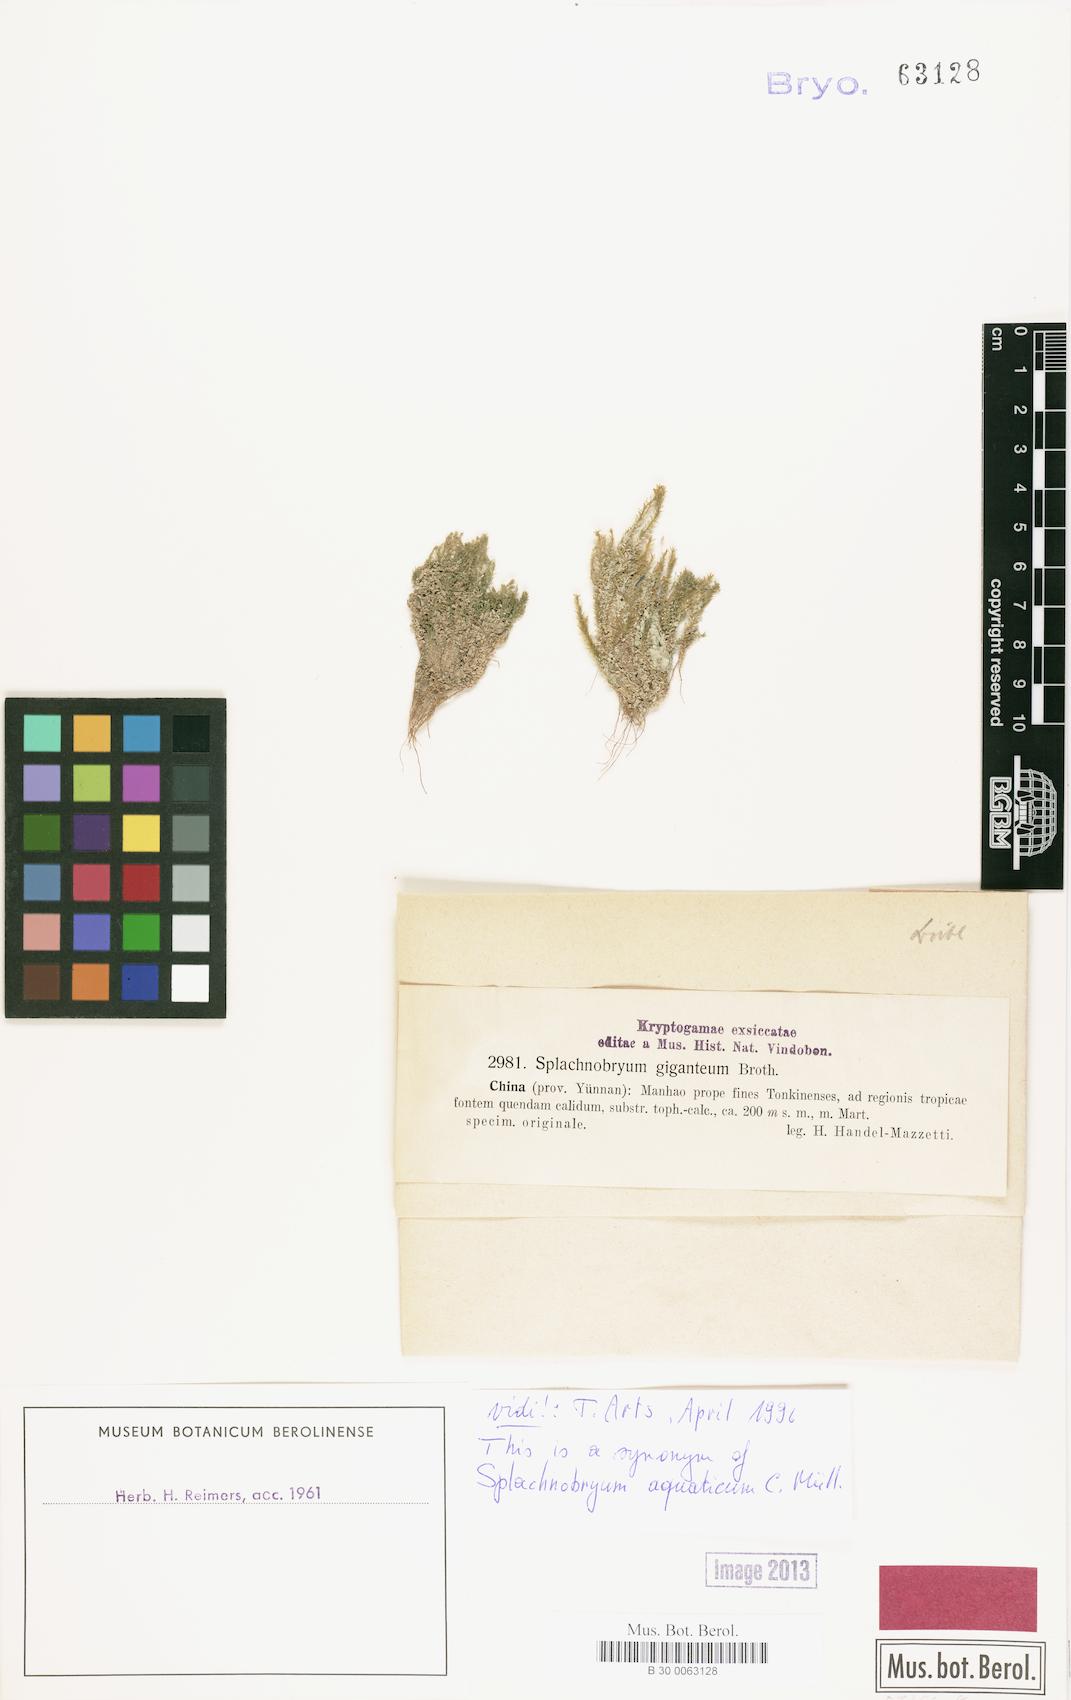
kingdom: Plantae
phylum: Bryophyta
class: Bryopsida
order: Pottiales
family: Splachnobryaceae
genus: Splachnobryum
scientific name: Splachnobryum aquaticum
